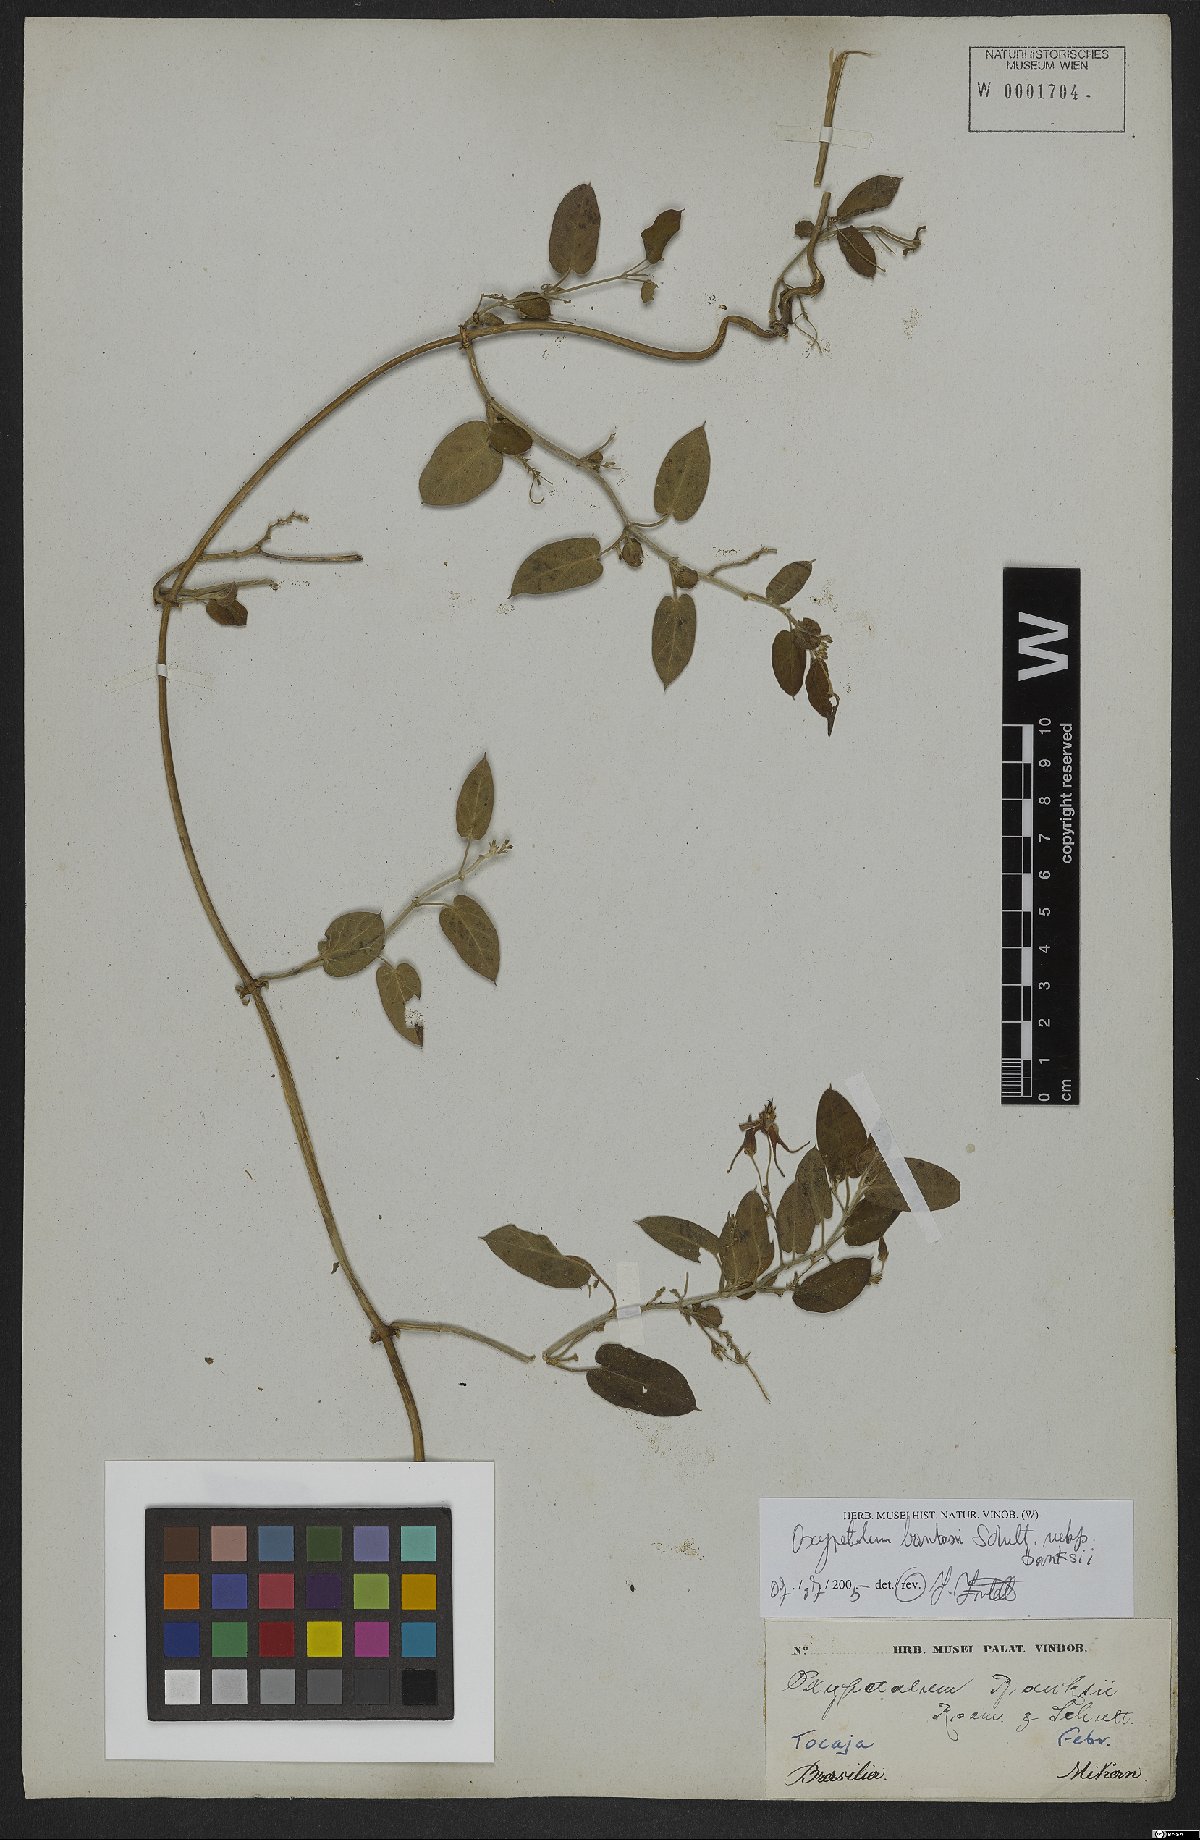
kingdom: Plantae
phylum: Tracheophyta
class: Magnoliopsida
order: Gentianales
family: Apocynaceae
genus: Oxypetalum
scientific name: Oxypetalum banksii
